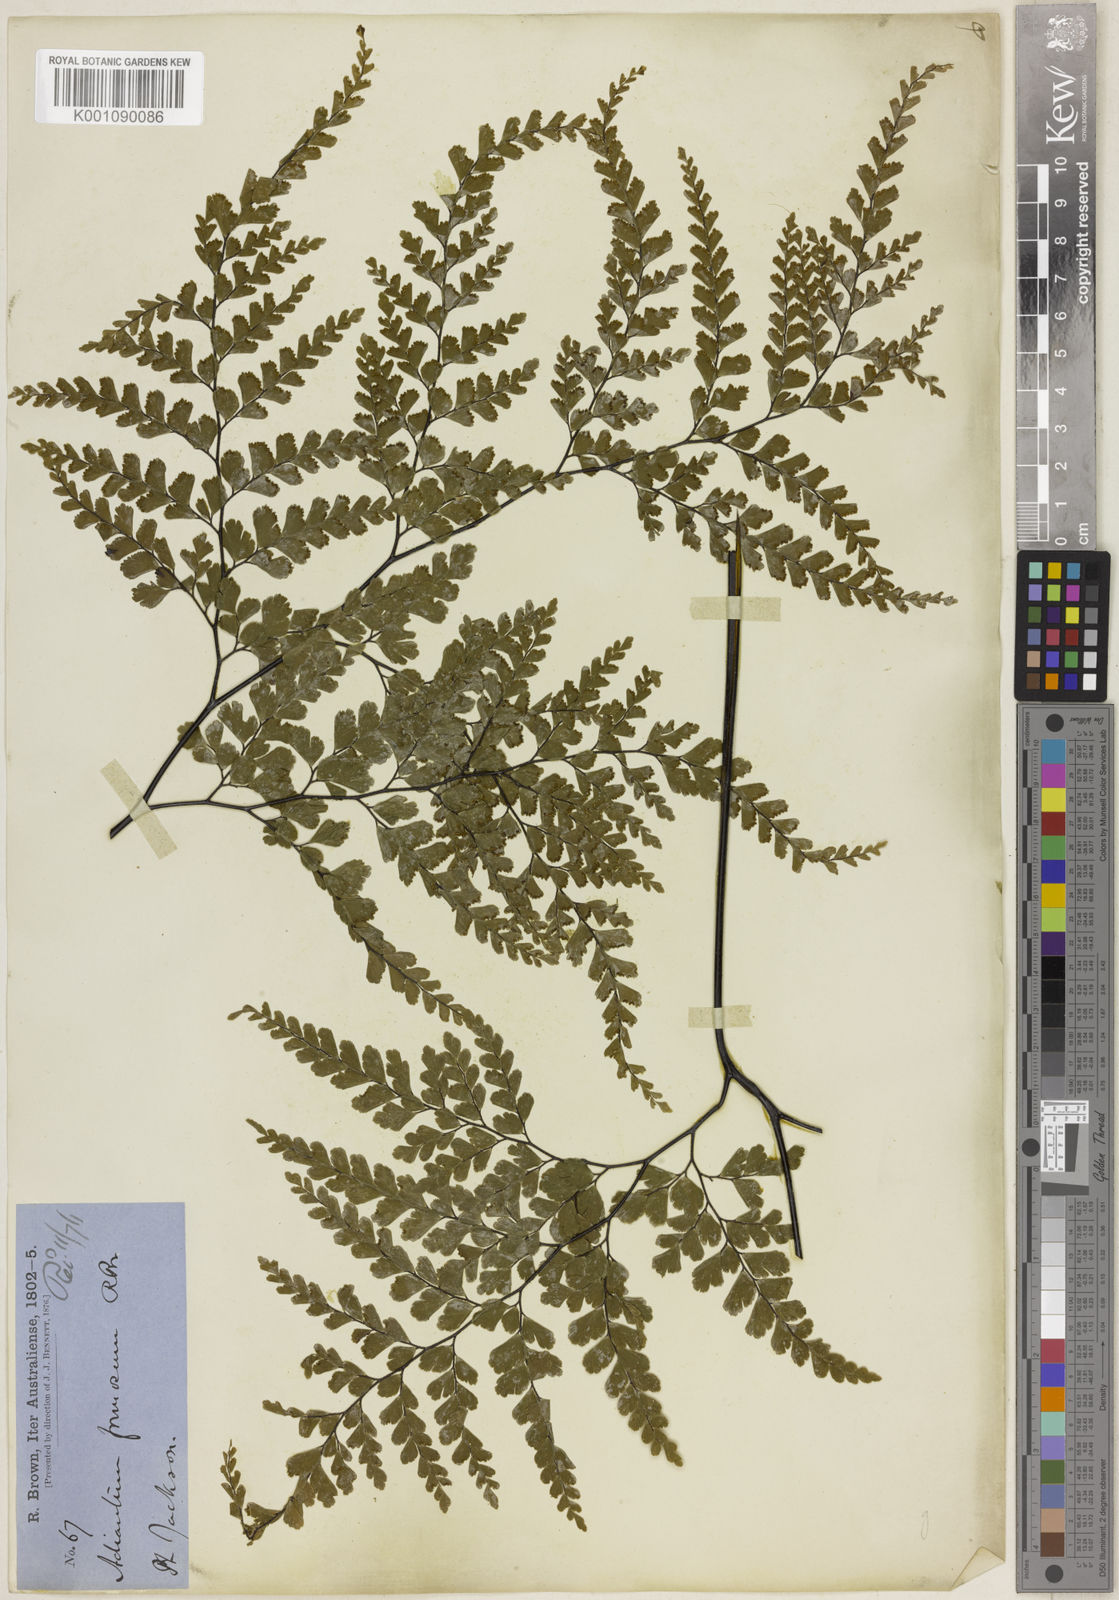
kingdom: Plantae
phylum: Tracheophyta
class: Polypodiopsida
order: Polypodiales
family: Pteridaceae
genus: Adiantum
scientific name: Adiantum formosum
